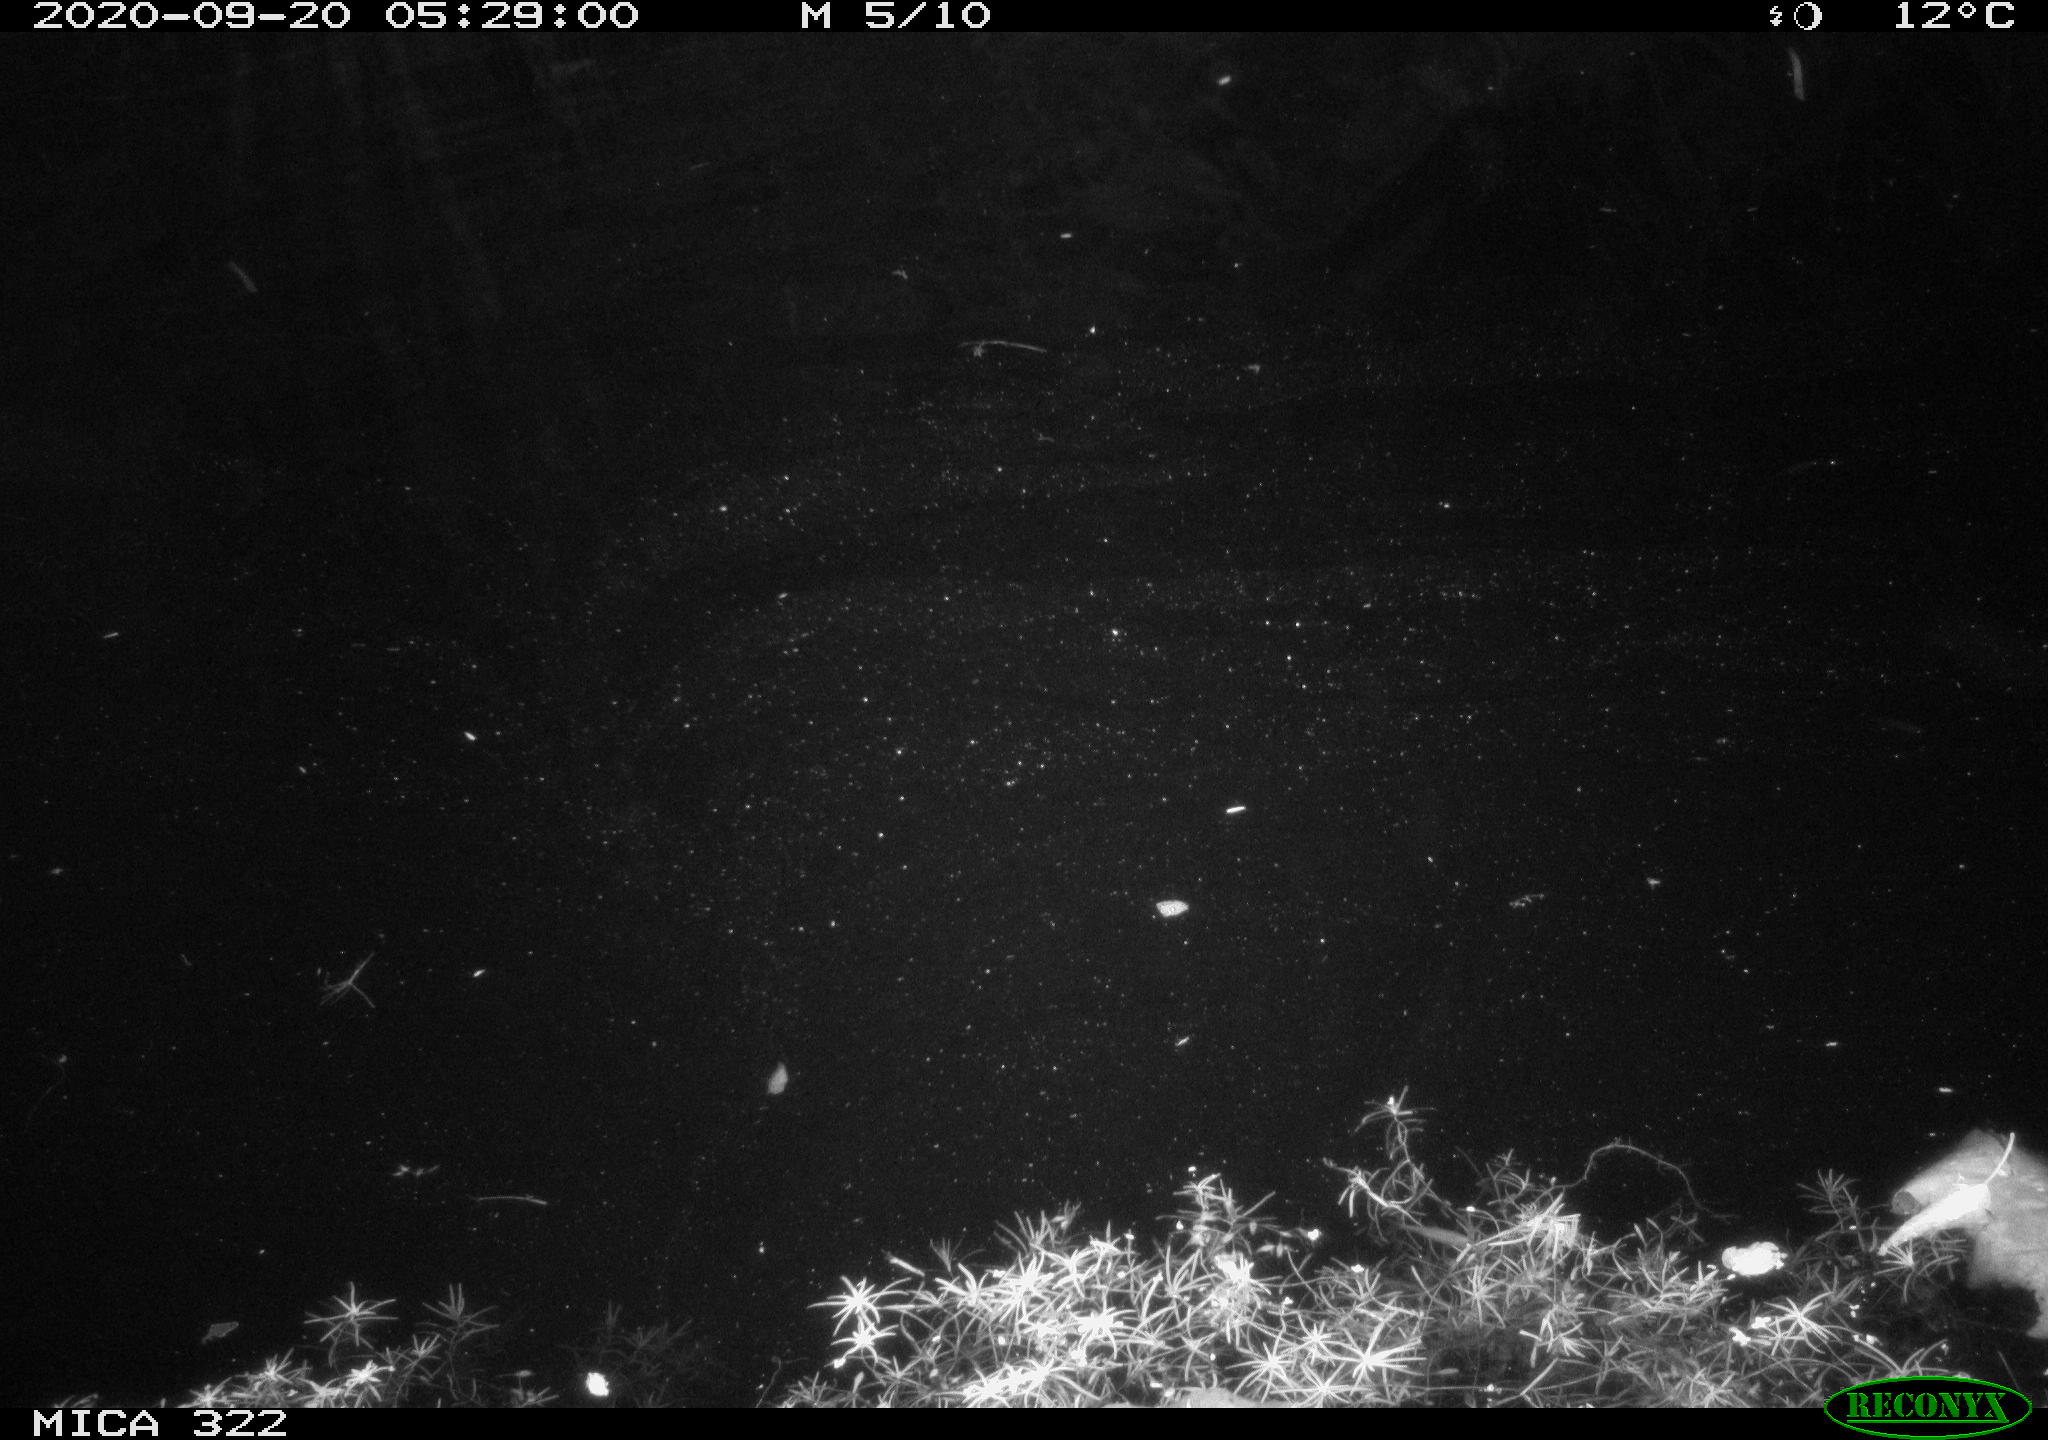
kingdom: Animalia
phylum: Chordata
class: Mammalia
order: Rodentia
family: Muridae
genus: Rattus
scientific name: Rattus norvegicus
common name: Brown rat
